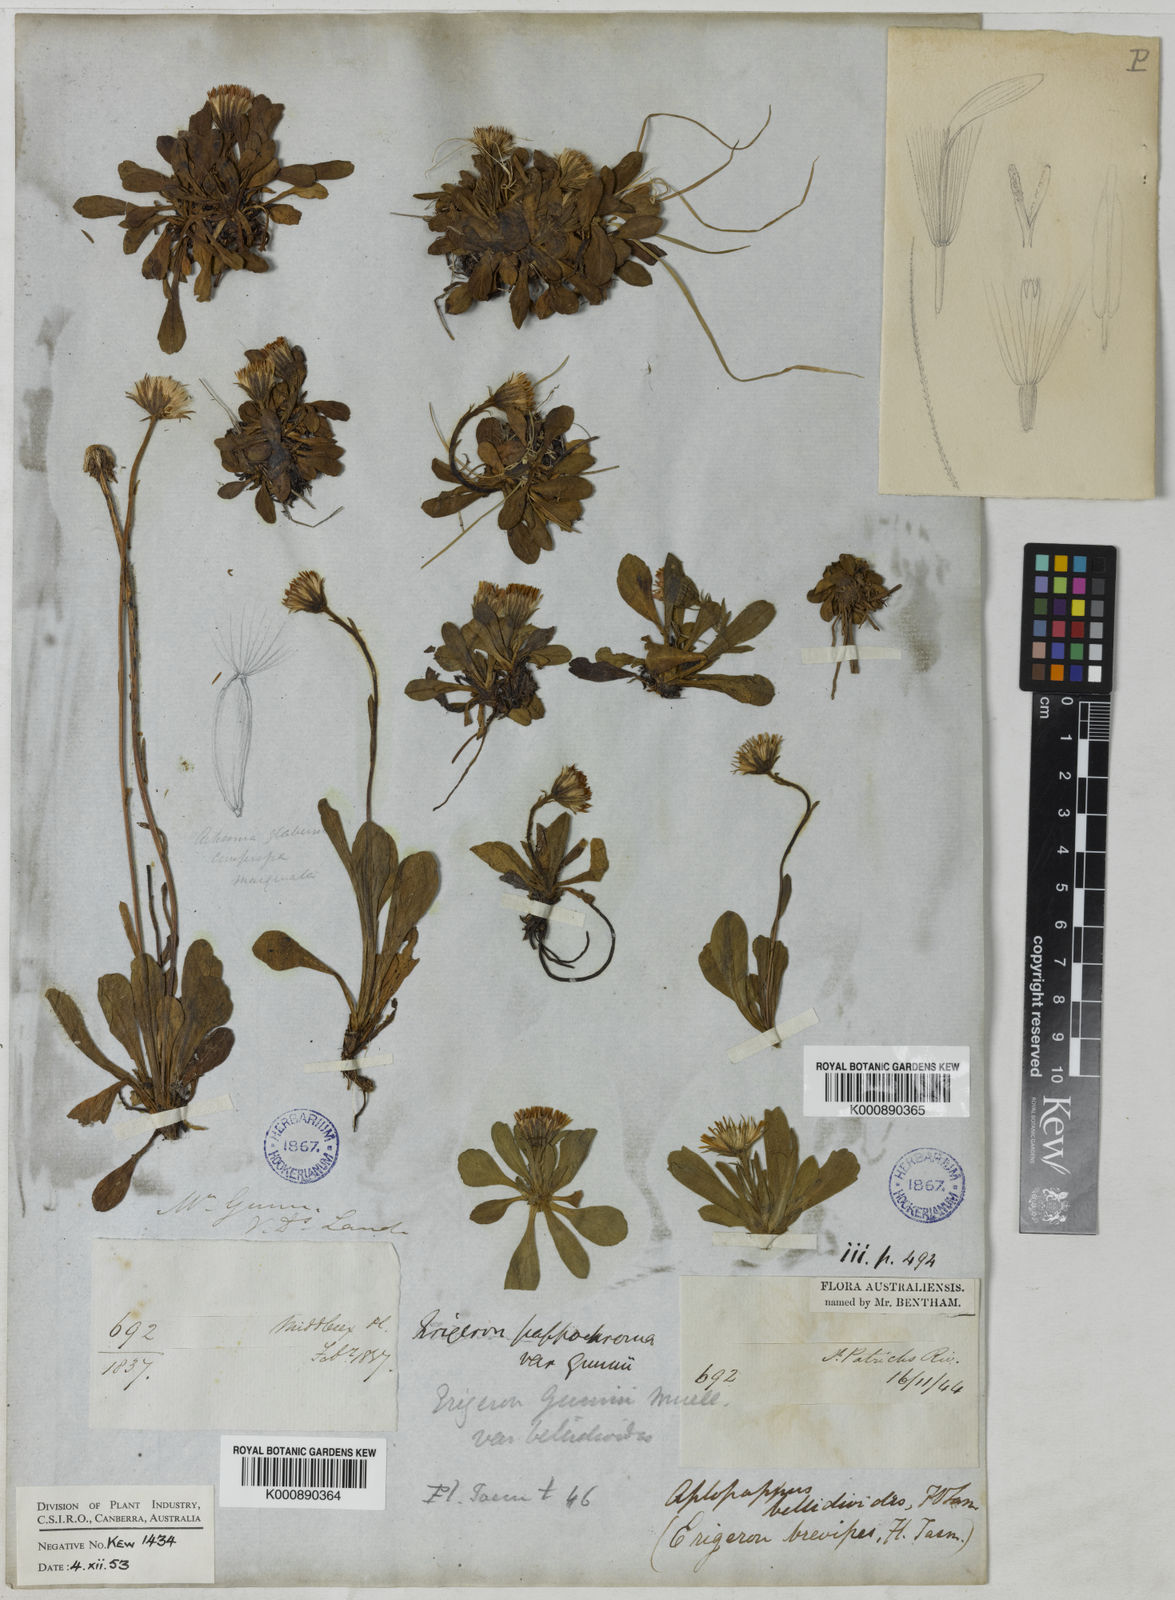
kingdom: Plantae
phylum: Tracheophyta
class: Magnoliopsida
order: Asterales
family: Asteraceae
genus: Pappochroma
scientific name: Pappochroma gunnii
